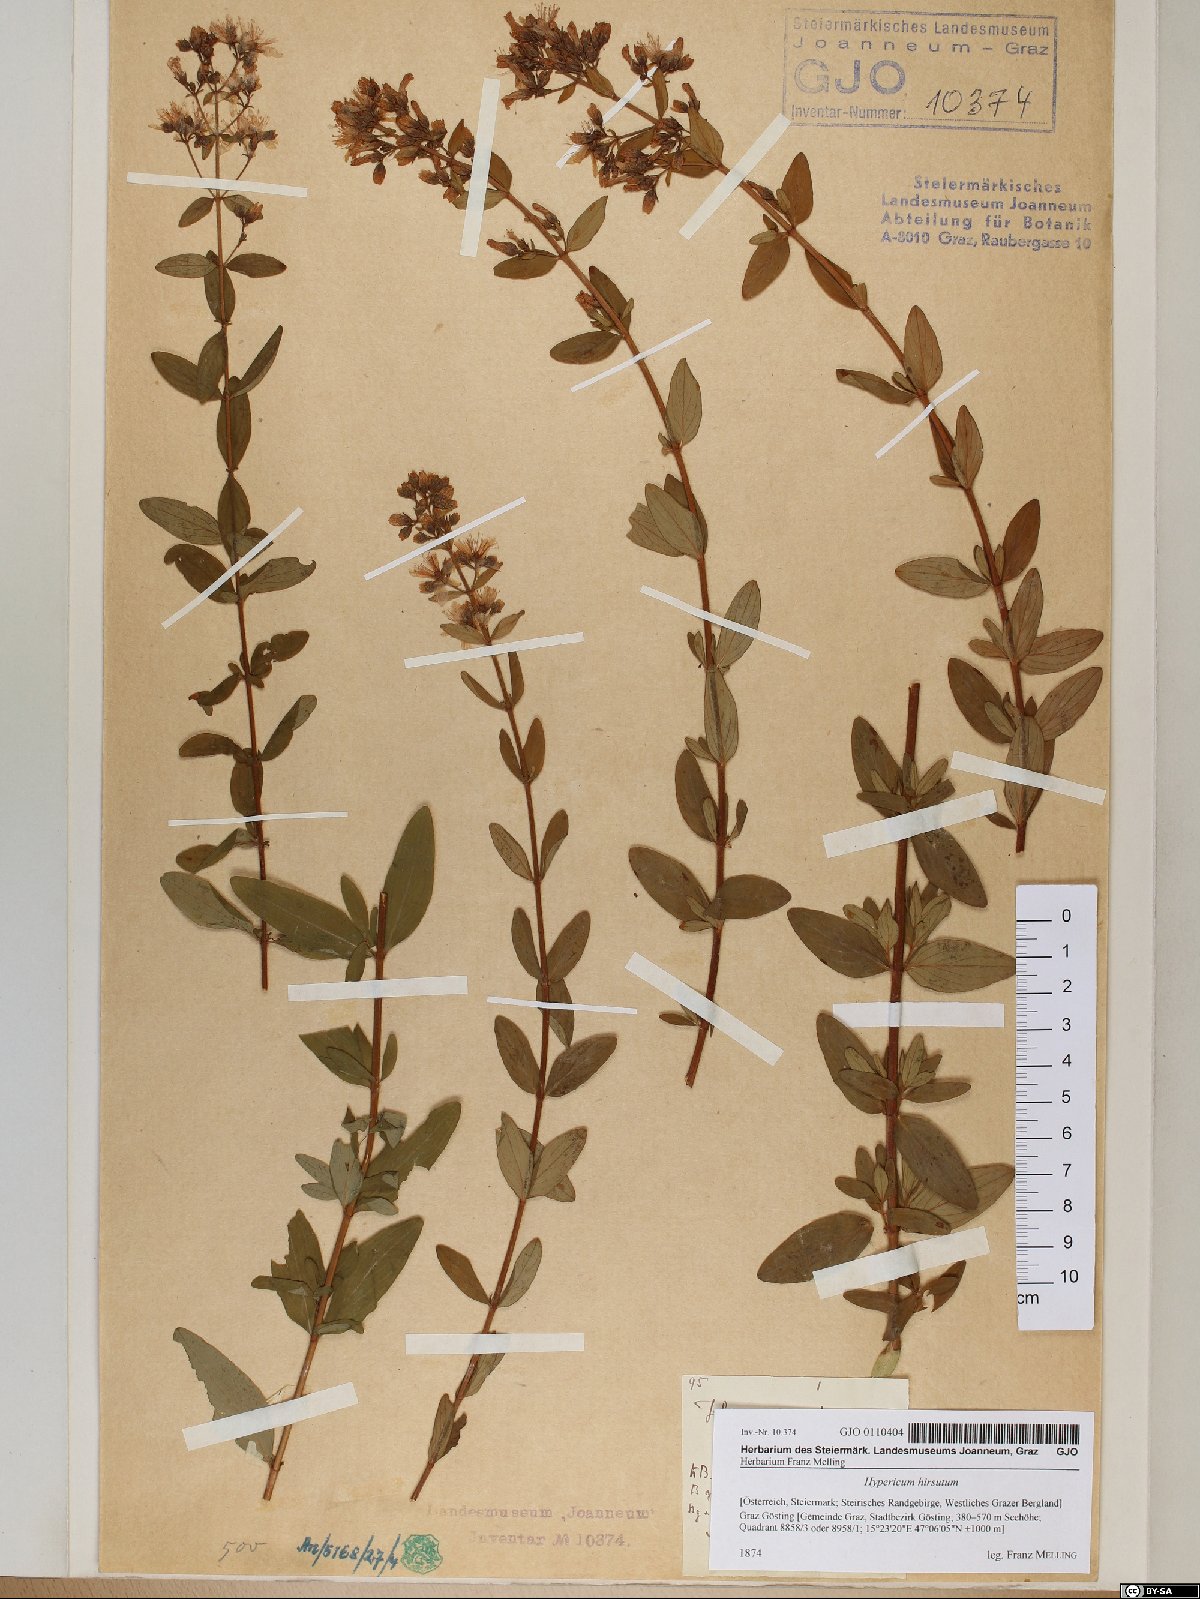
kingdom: Plantae
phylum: Tracheophyta
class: Magnoliopsida
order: Malpighiales
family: Hypericaceae
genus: Hypericum
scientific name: Hypericum hirsutum
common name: Hairy st. john's-wort
